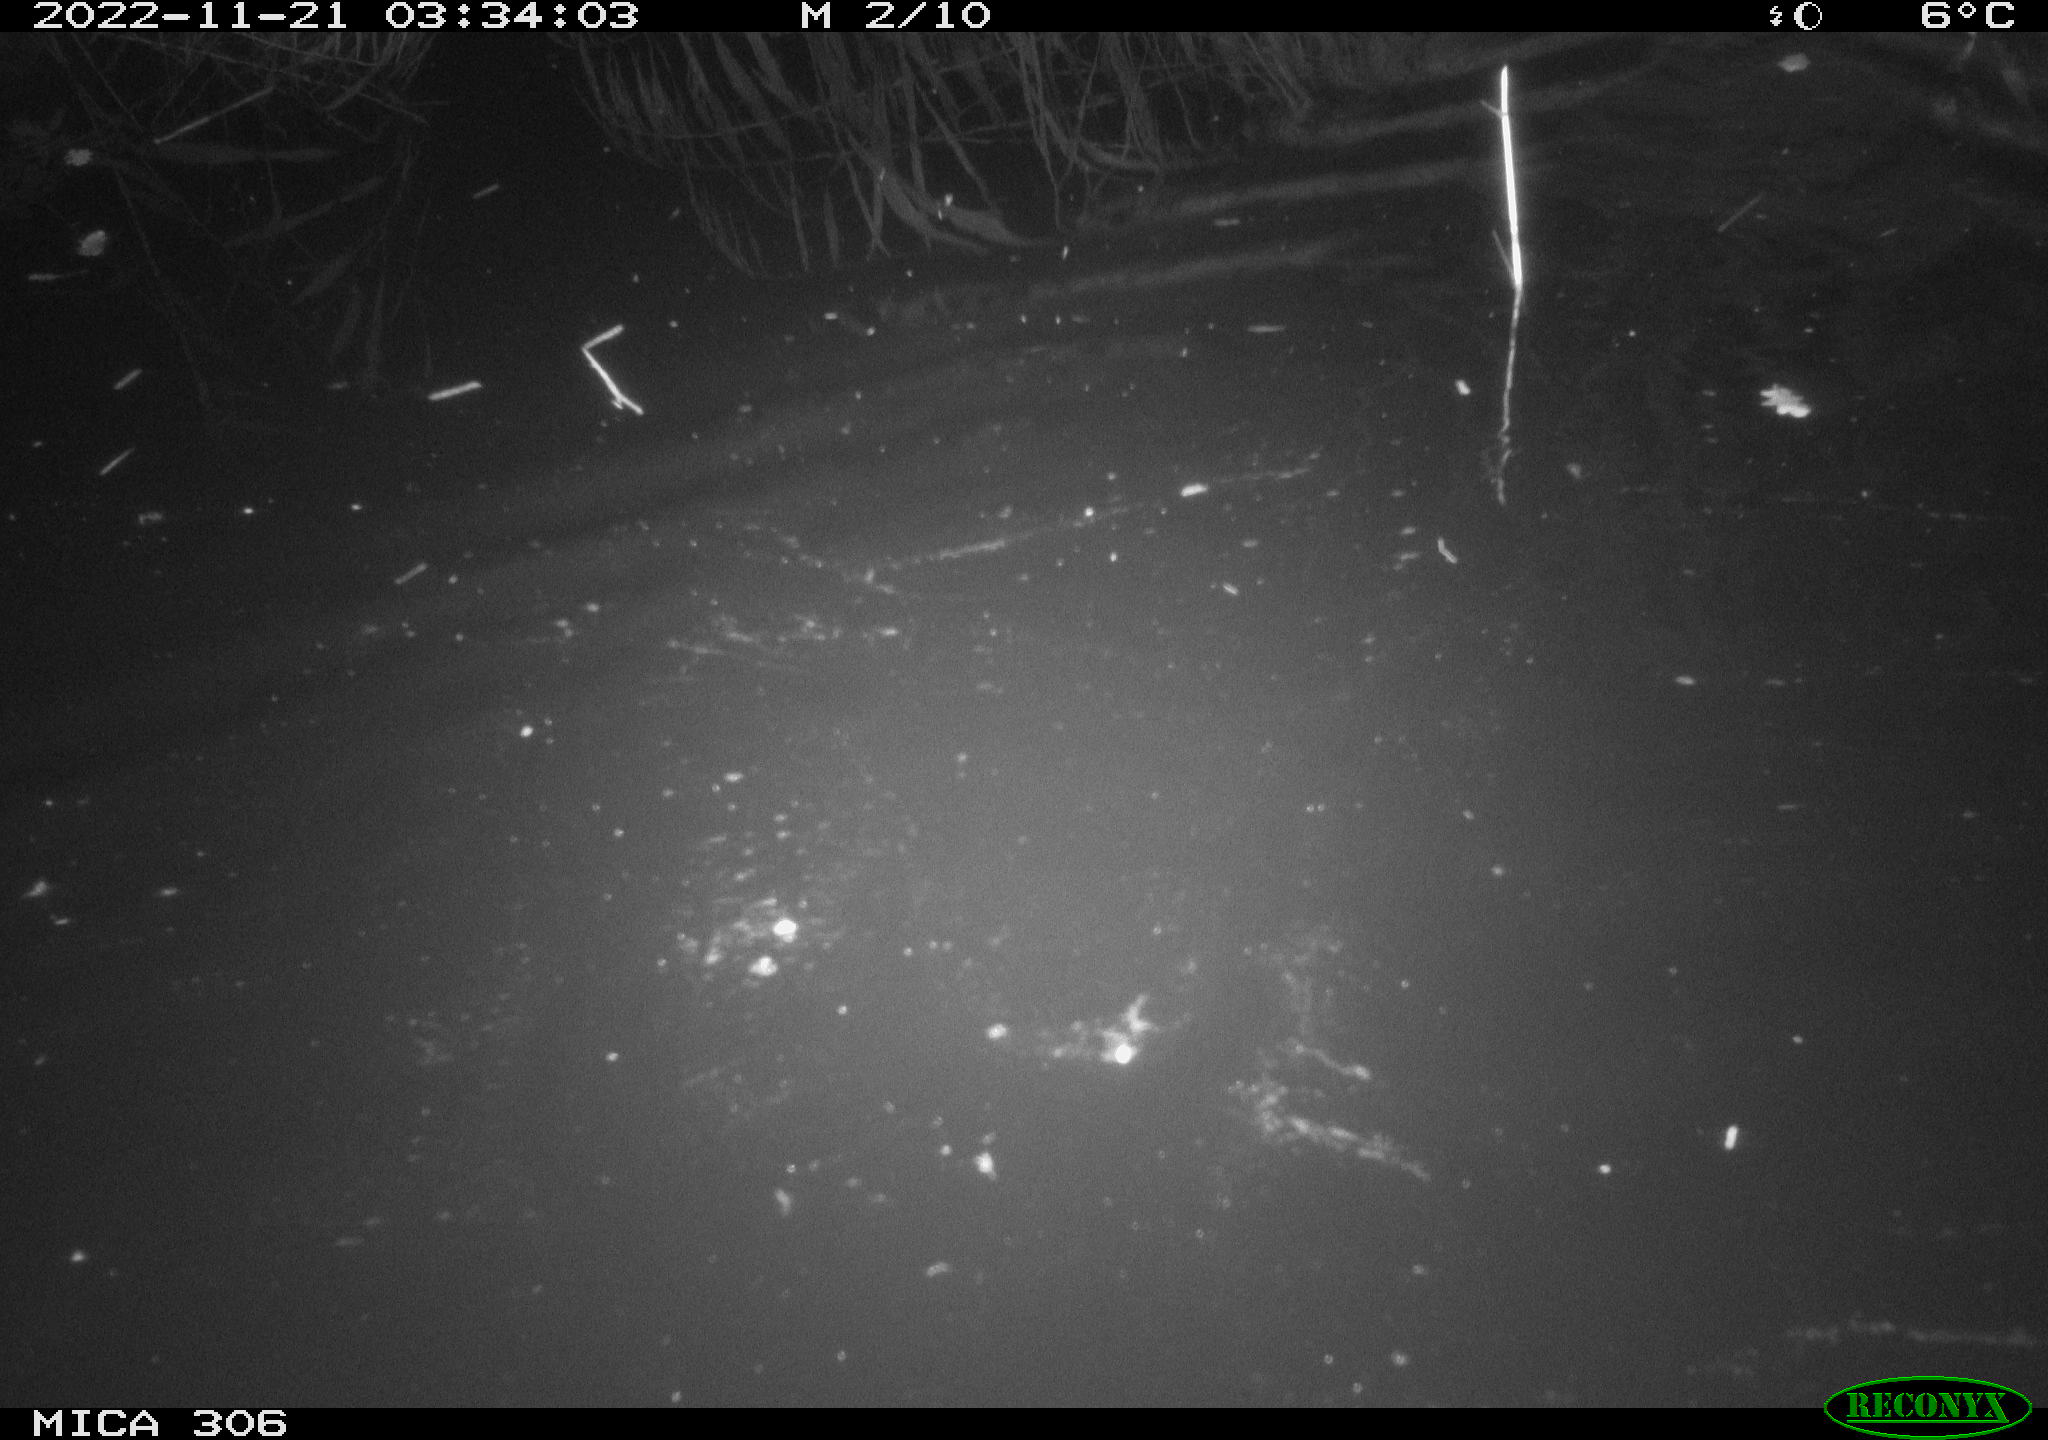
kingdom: Animalia
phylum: Chordata
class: Mammalia
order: Rodentia
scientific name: Rodentia
